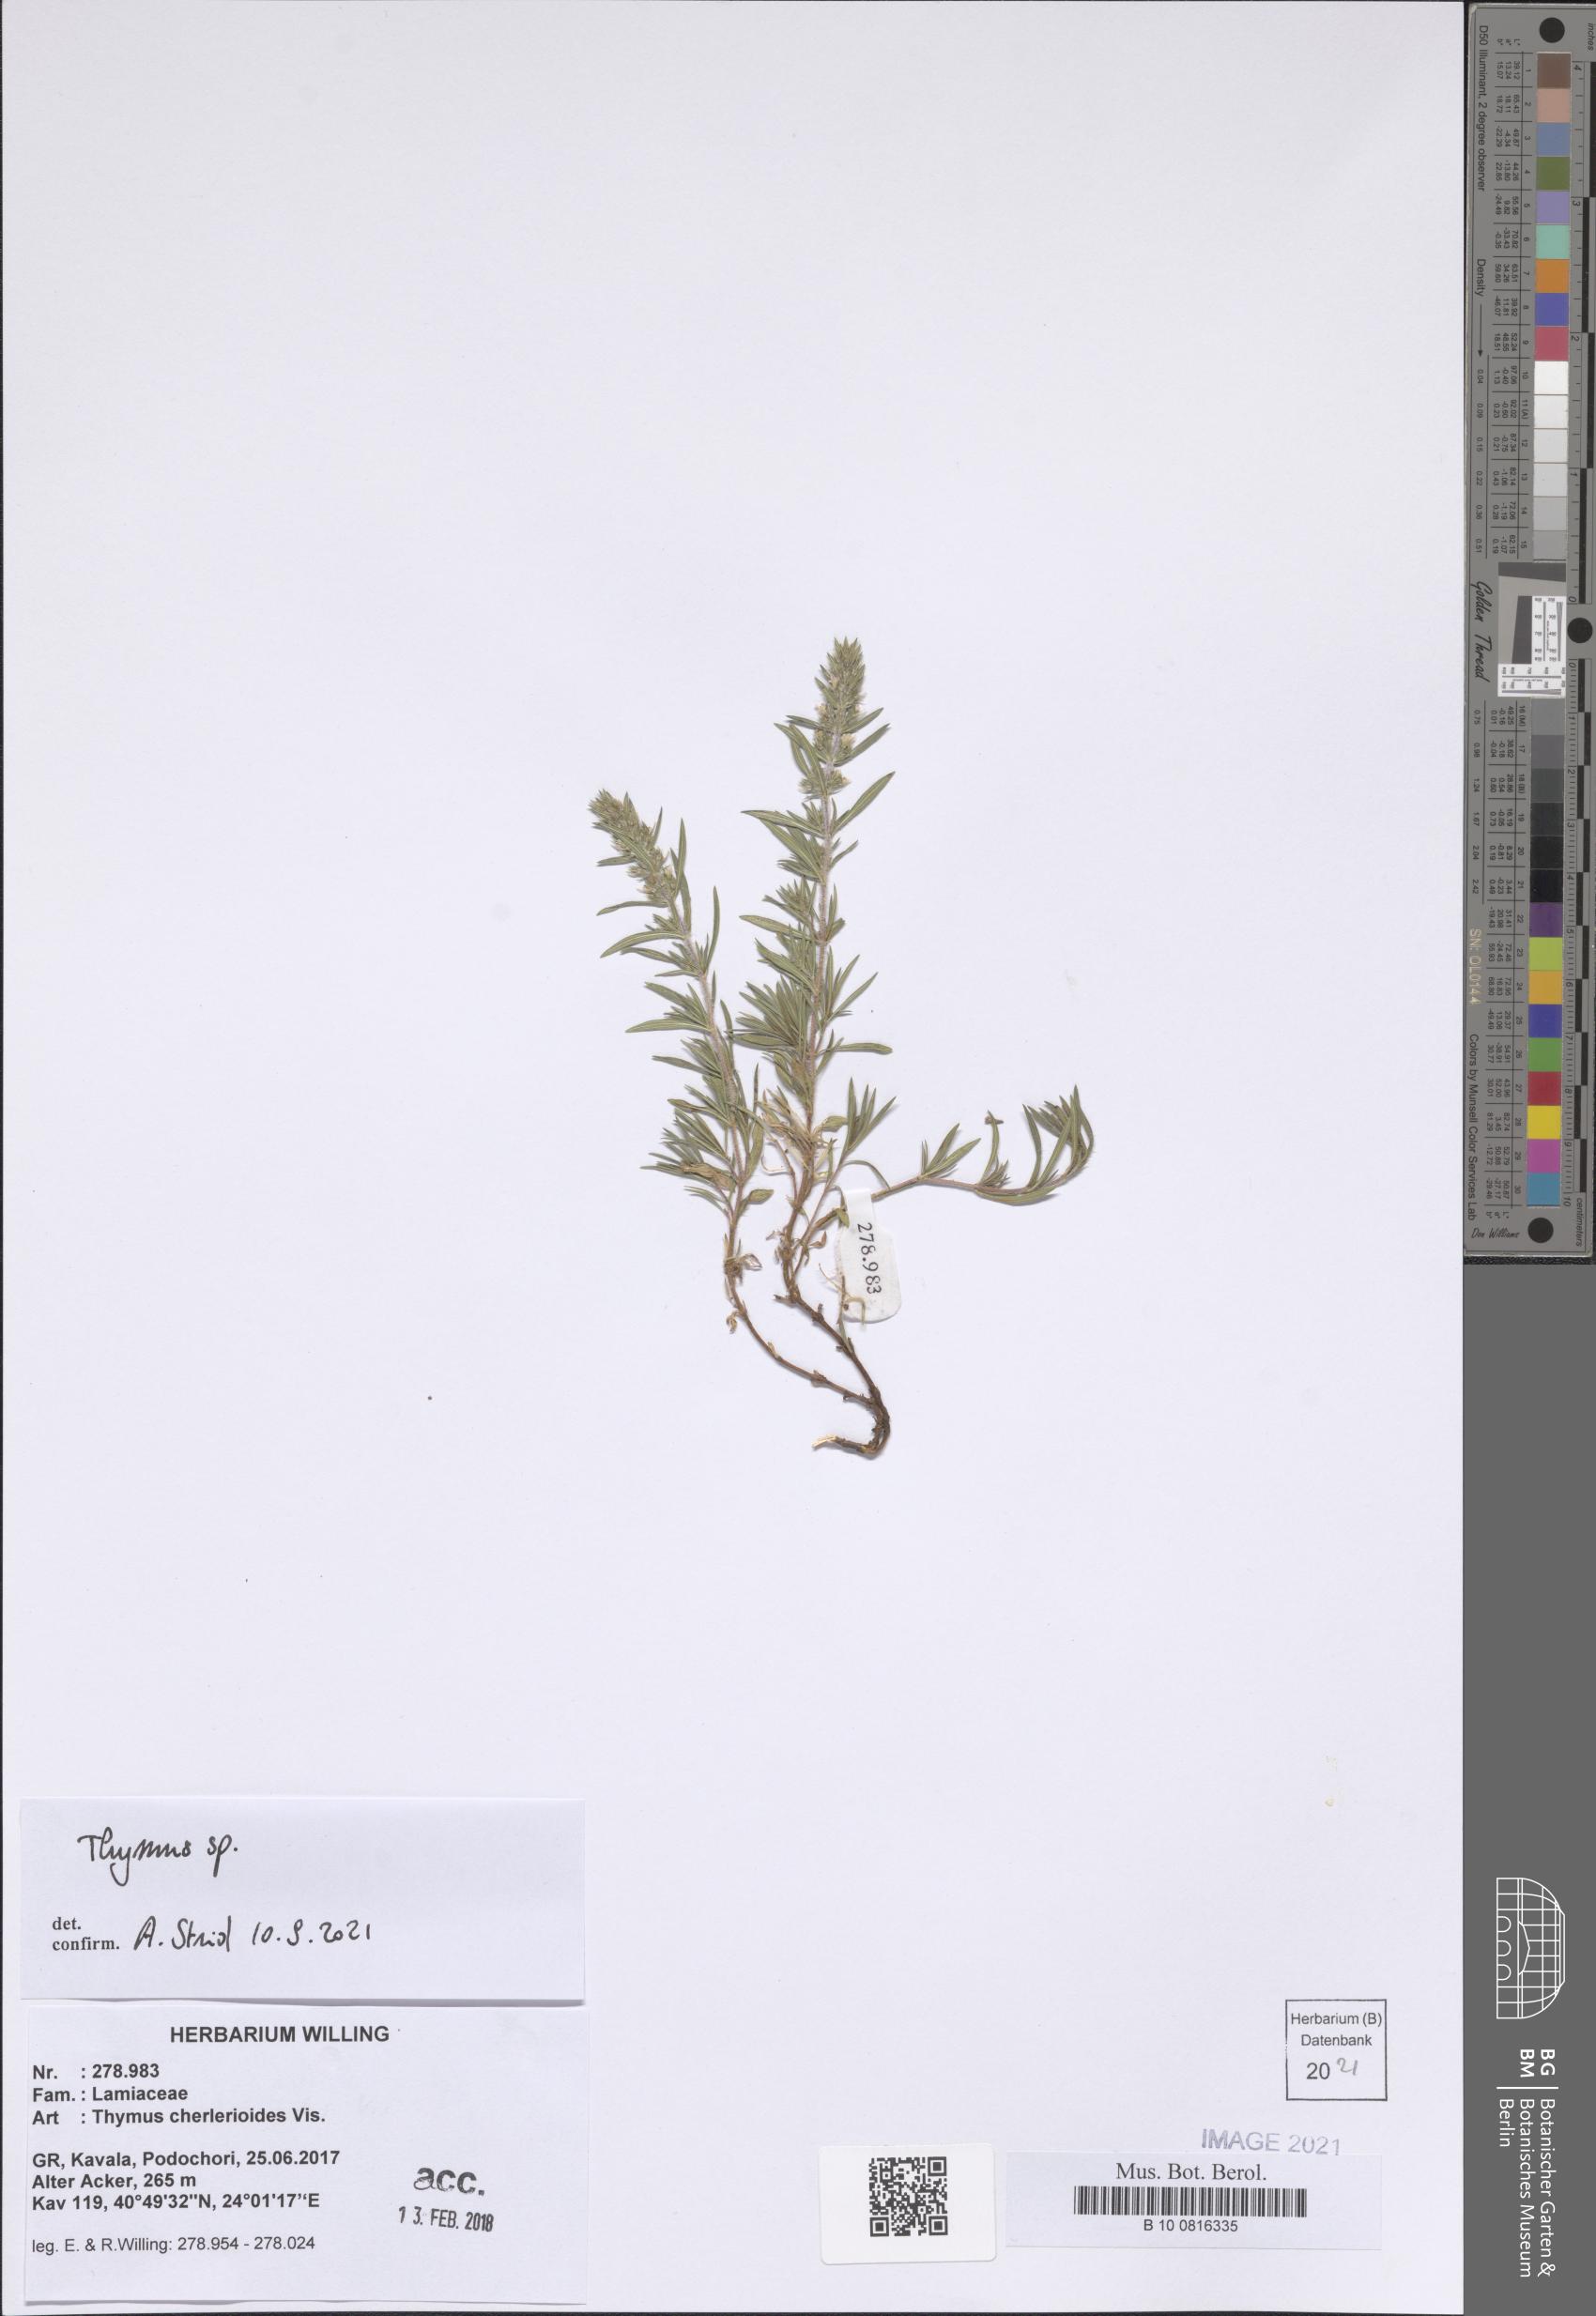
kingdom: Plantae
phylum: Tracheophyta
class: Magnoliopsida
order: Lamiales
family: Lamiaceae
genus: Thymus
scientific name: Thymus
